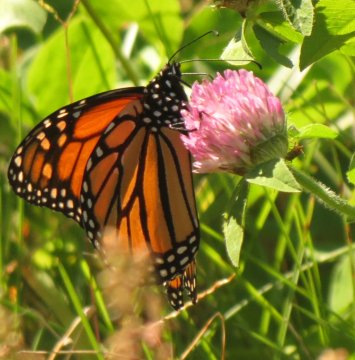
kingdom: Animalia
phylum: Arthropoda
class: Insecta
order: Lepidoptera
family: Nymphalidae
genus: Danaus
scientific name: Danaus plexippus
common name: Monarch
